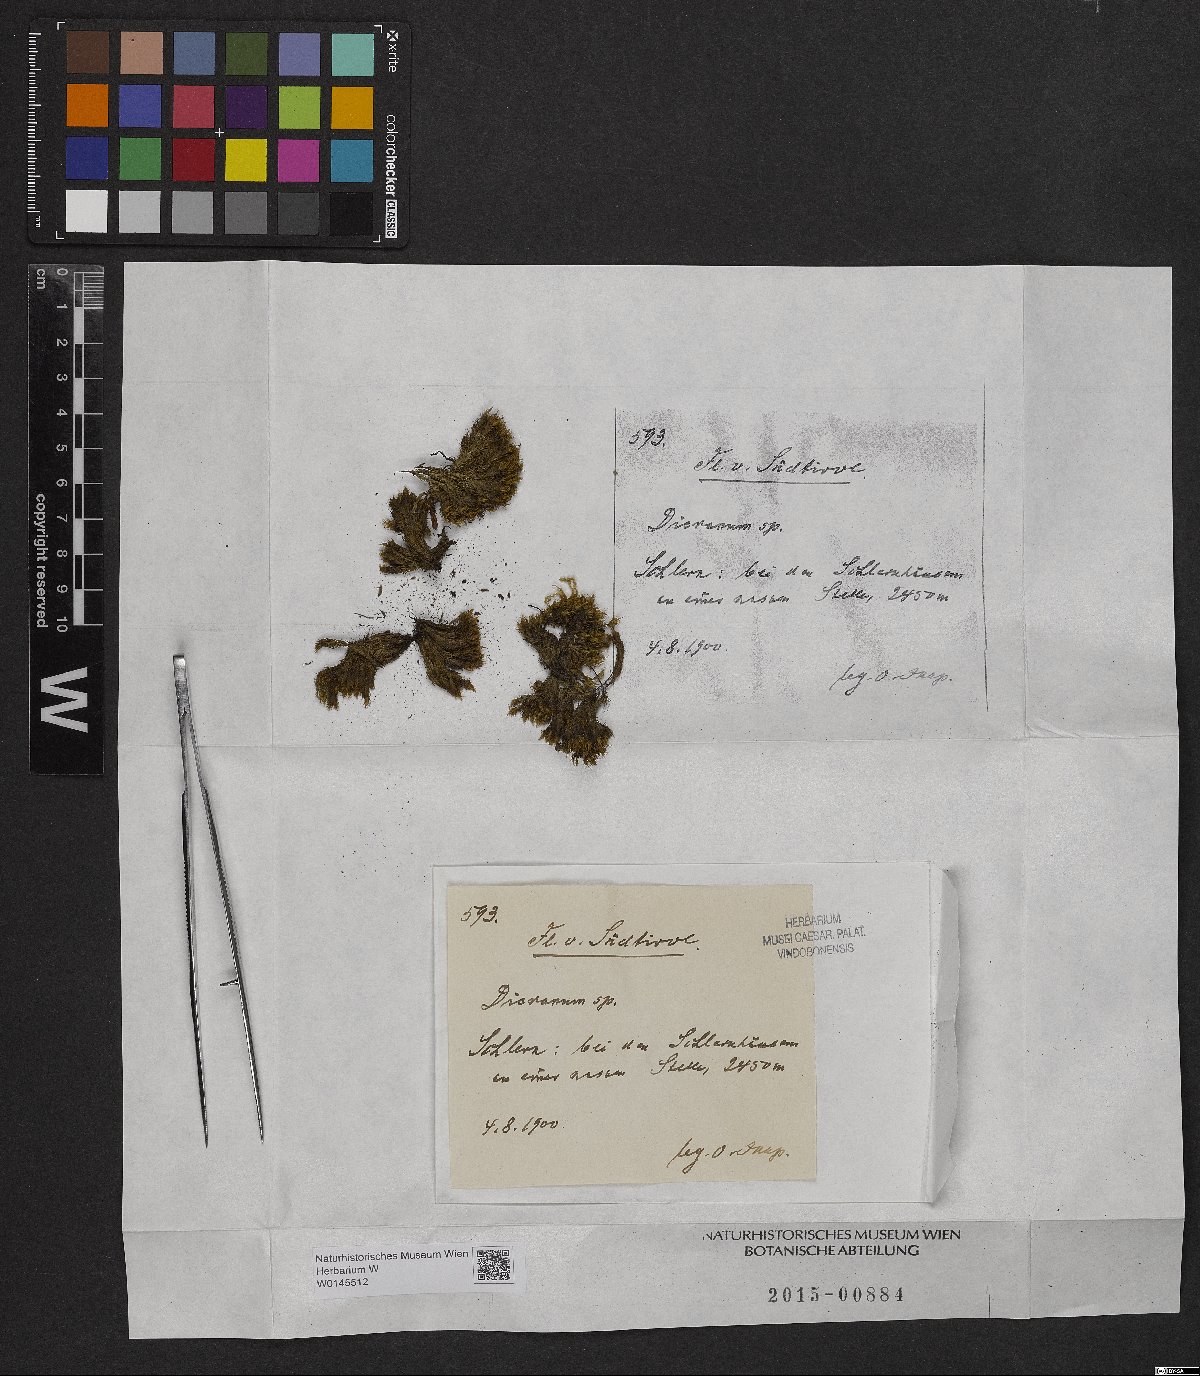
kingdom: Plantae
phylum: Bryophyta
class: Bryopsida
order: Dicranales
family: Dicranaceae
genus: Dicranum
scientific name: Dicranum
